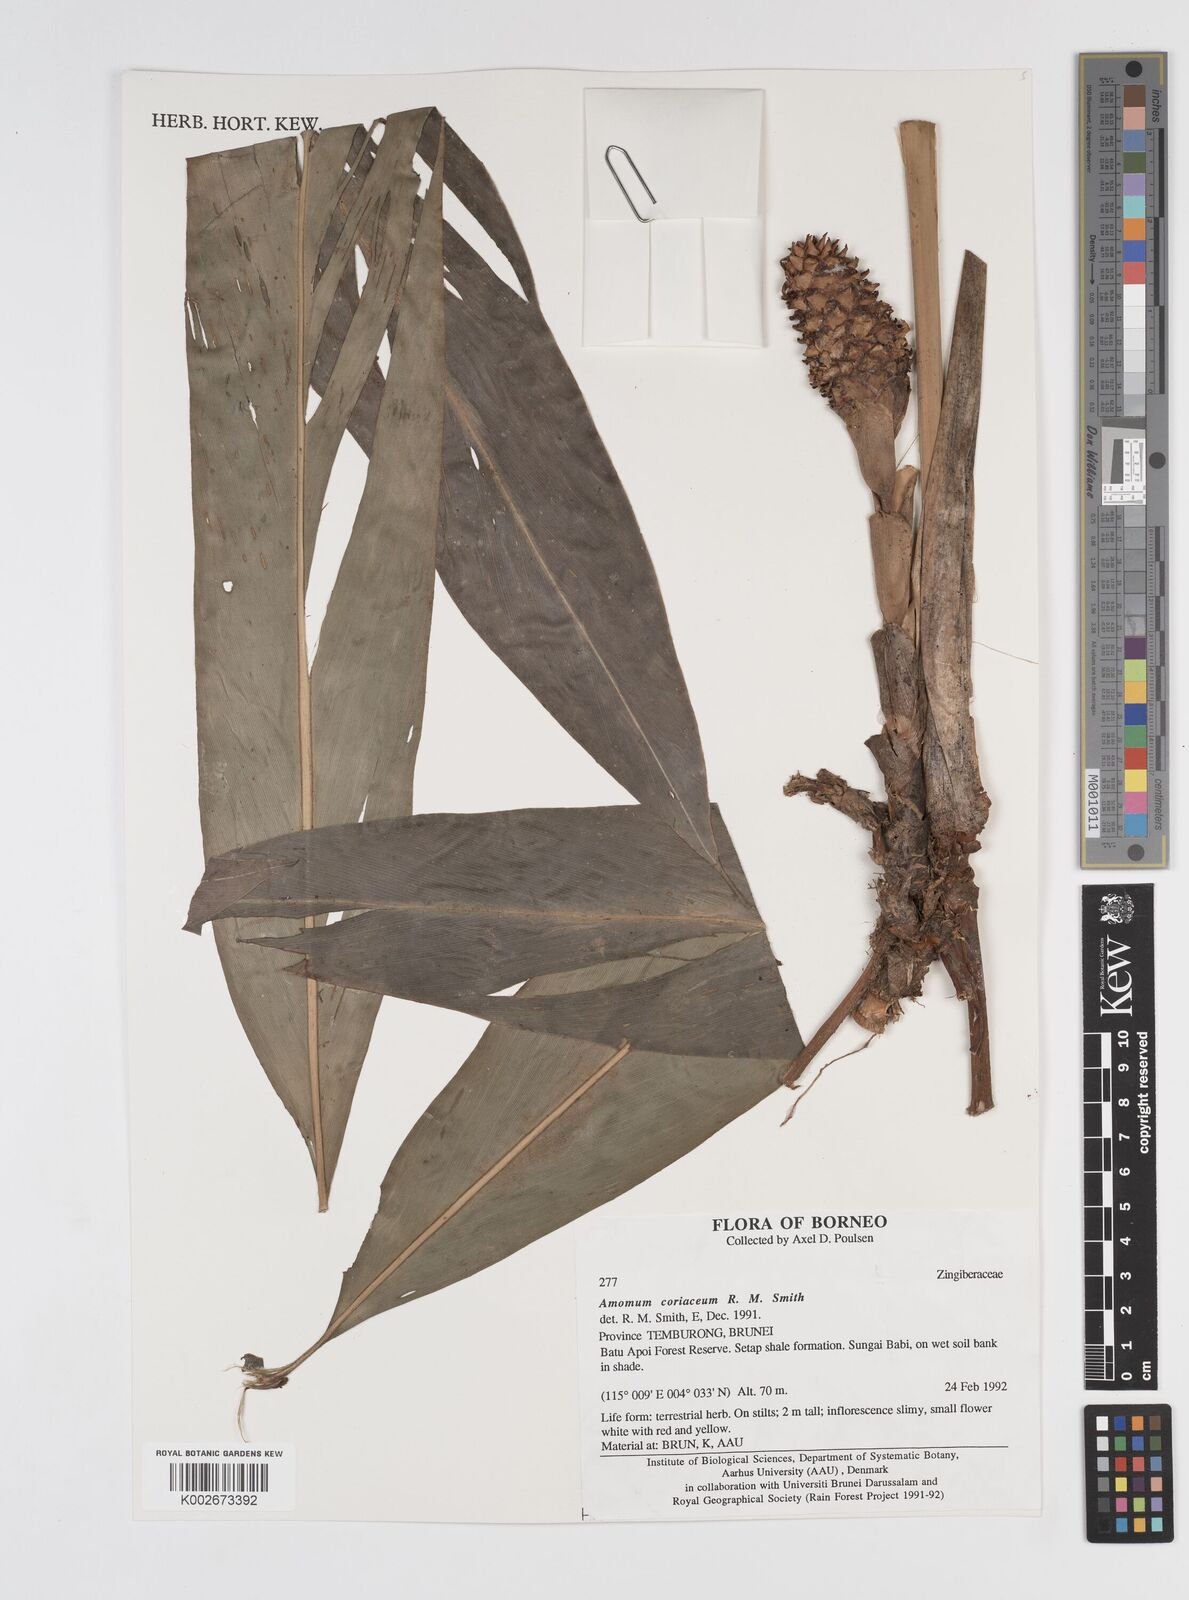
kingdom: Plantae
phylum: Tracheophyta
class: Liliopsida
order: Zingiberales
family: Zingiberaceae
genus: Conamomum
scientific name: Conamomum cylindrostachys
